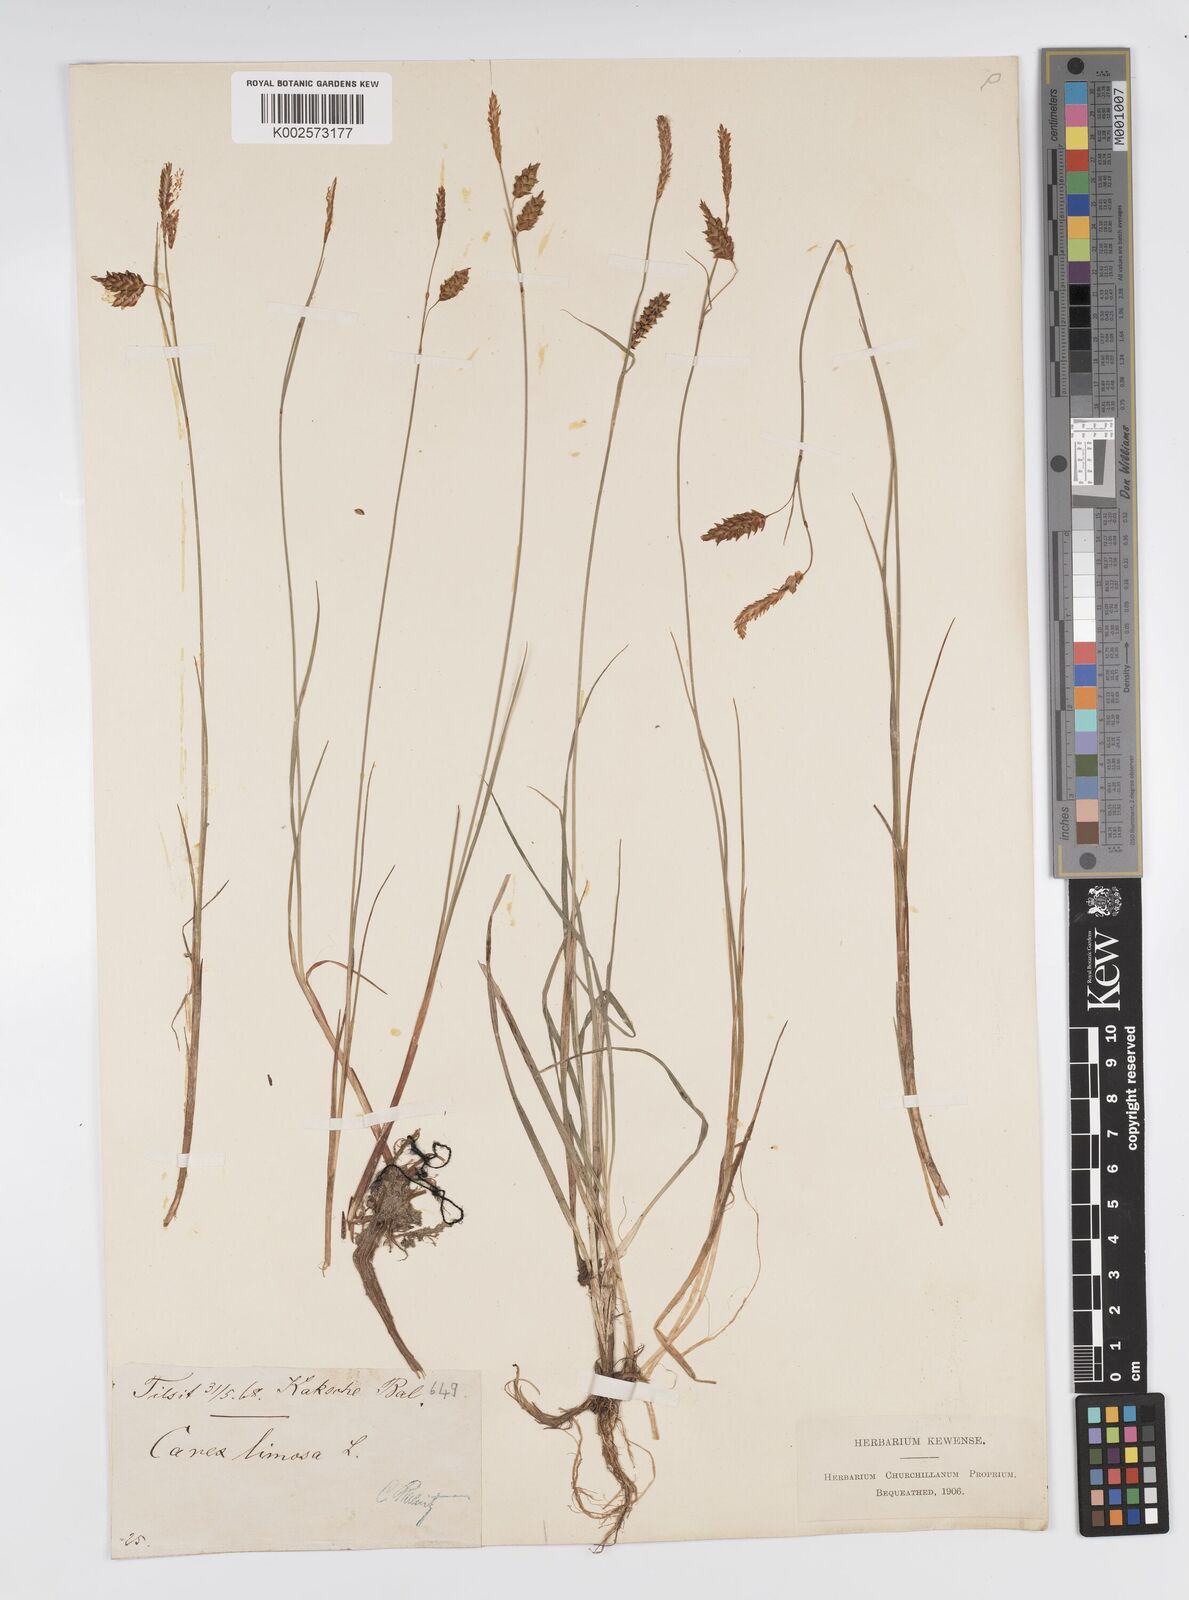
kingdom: Plantae
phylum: Tracheophyta
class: Liliopsida
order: Poales
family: Cyperaceae
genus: Carex
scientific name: Carex limosa
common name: Bog sedge
